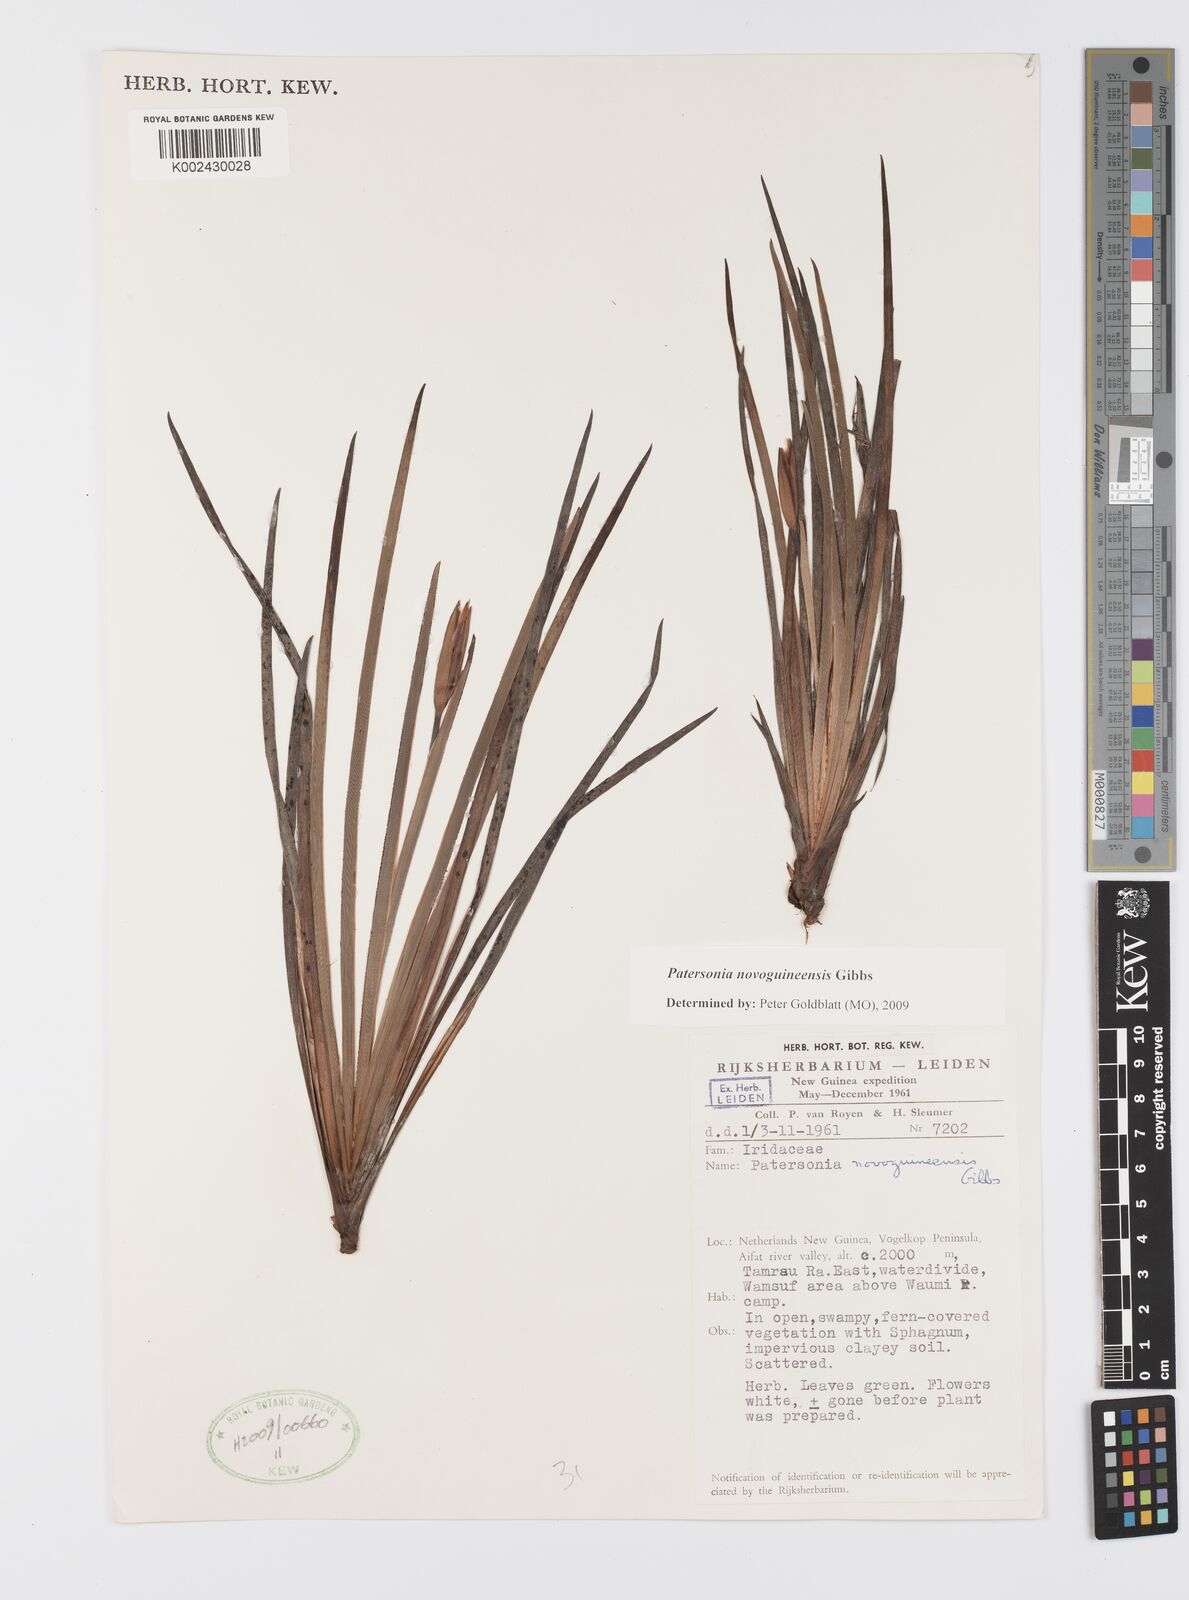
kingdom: Plantae
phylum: Tracheophyta
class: Liliopsida
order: Asparagales
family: Iridaceae
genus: Patersonia
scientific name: Patersonia novoguineensis
